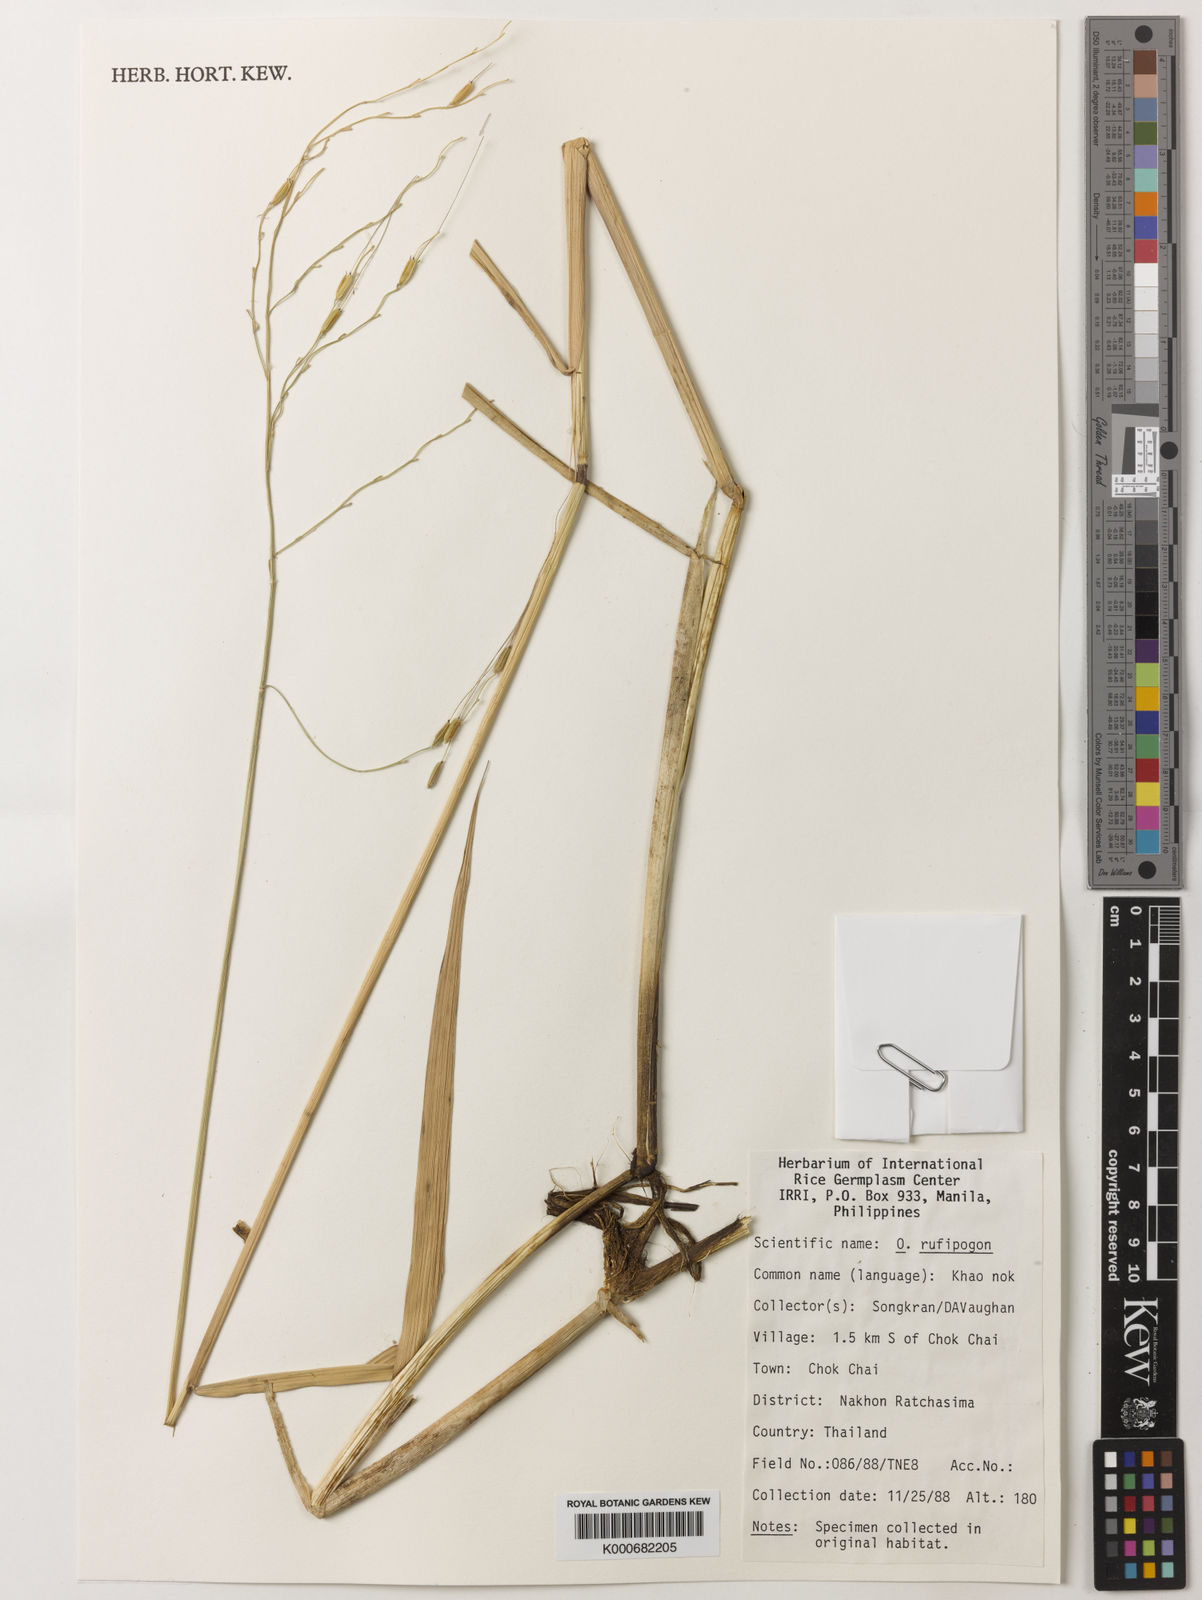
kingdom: Plantae
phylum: Tracheophyta
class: Liliopsida
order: Poales
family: Poaceae
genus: Oryza
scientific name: Oryza rufipogon
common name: Red rice
